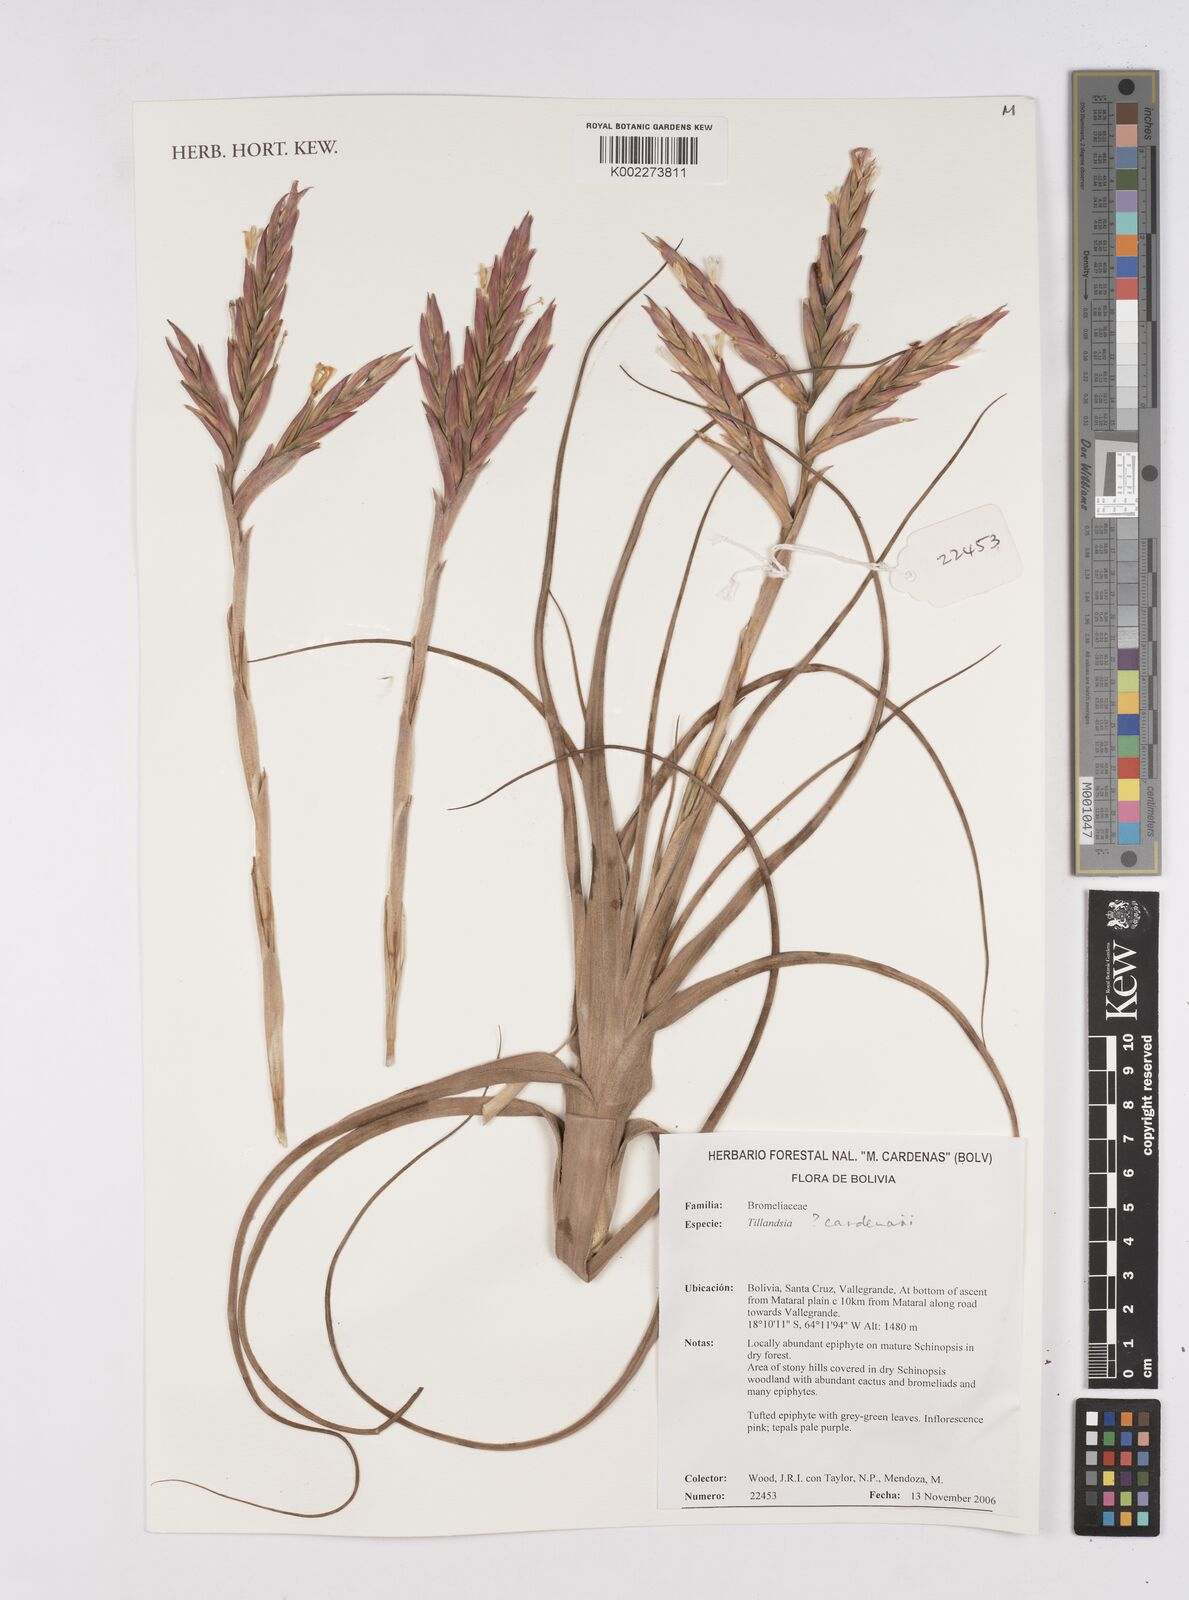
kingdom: Plantae
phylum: Tracheophyta
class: Liliopsida
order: Poales
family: Bromeliaceae
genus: Tillandsia
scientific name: Tillandsia
